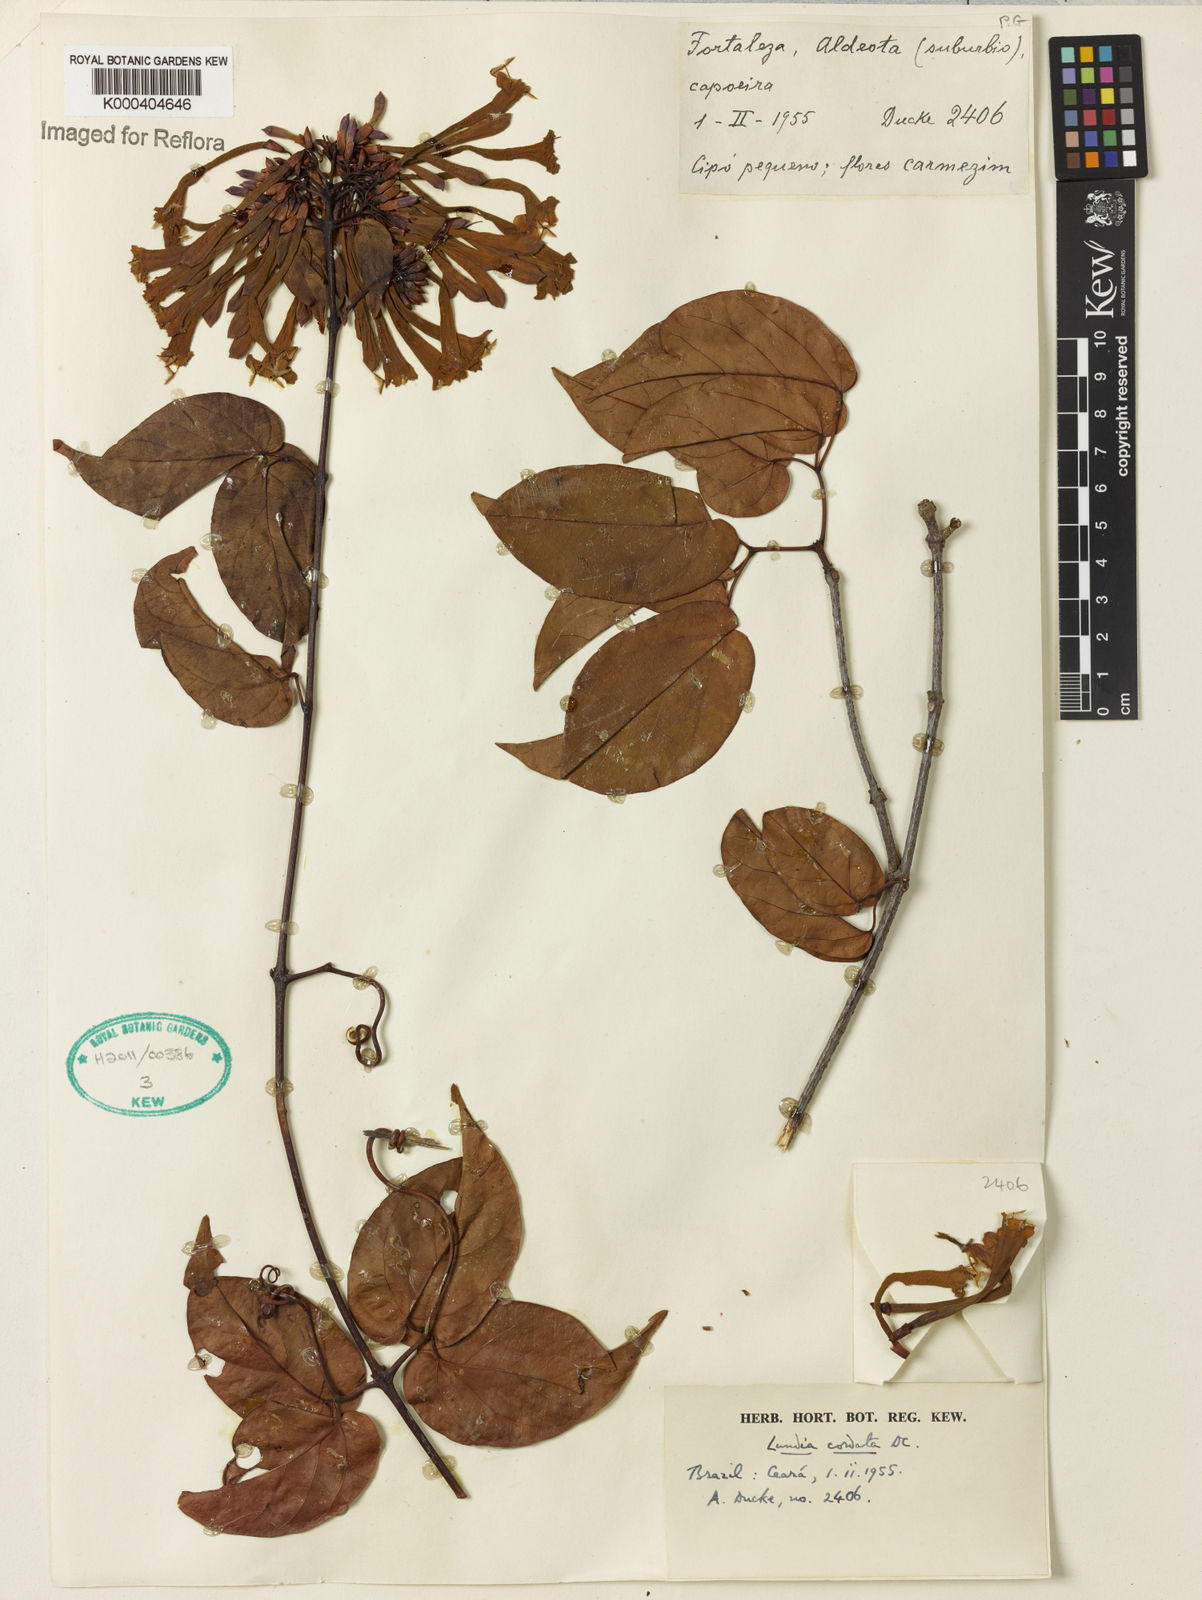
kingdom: Plantae
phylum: Tracheophyta
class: Magnoliopsida
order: Lamiales
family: Bignoniaceae
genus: Lundia
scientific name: Lundia corymbifera
